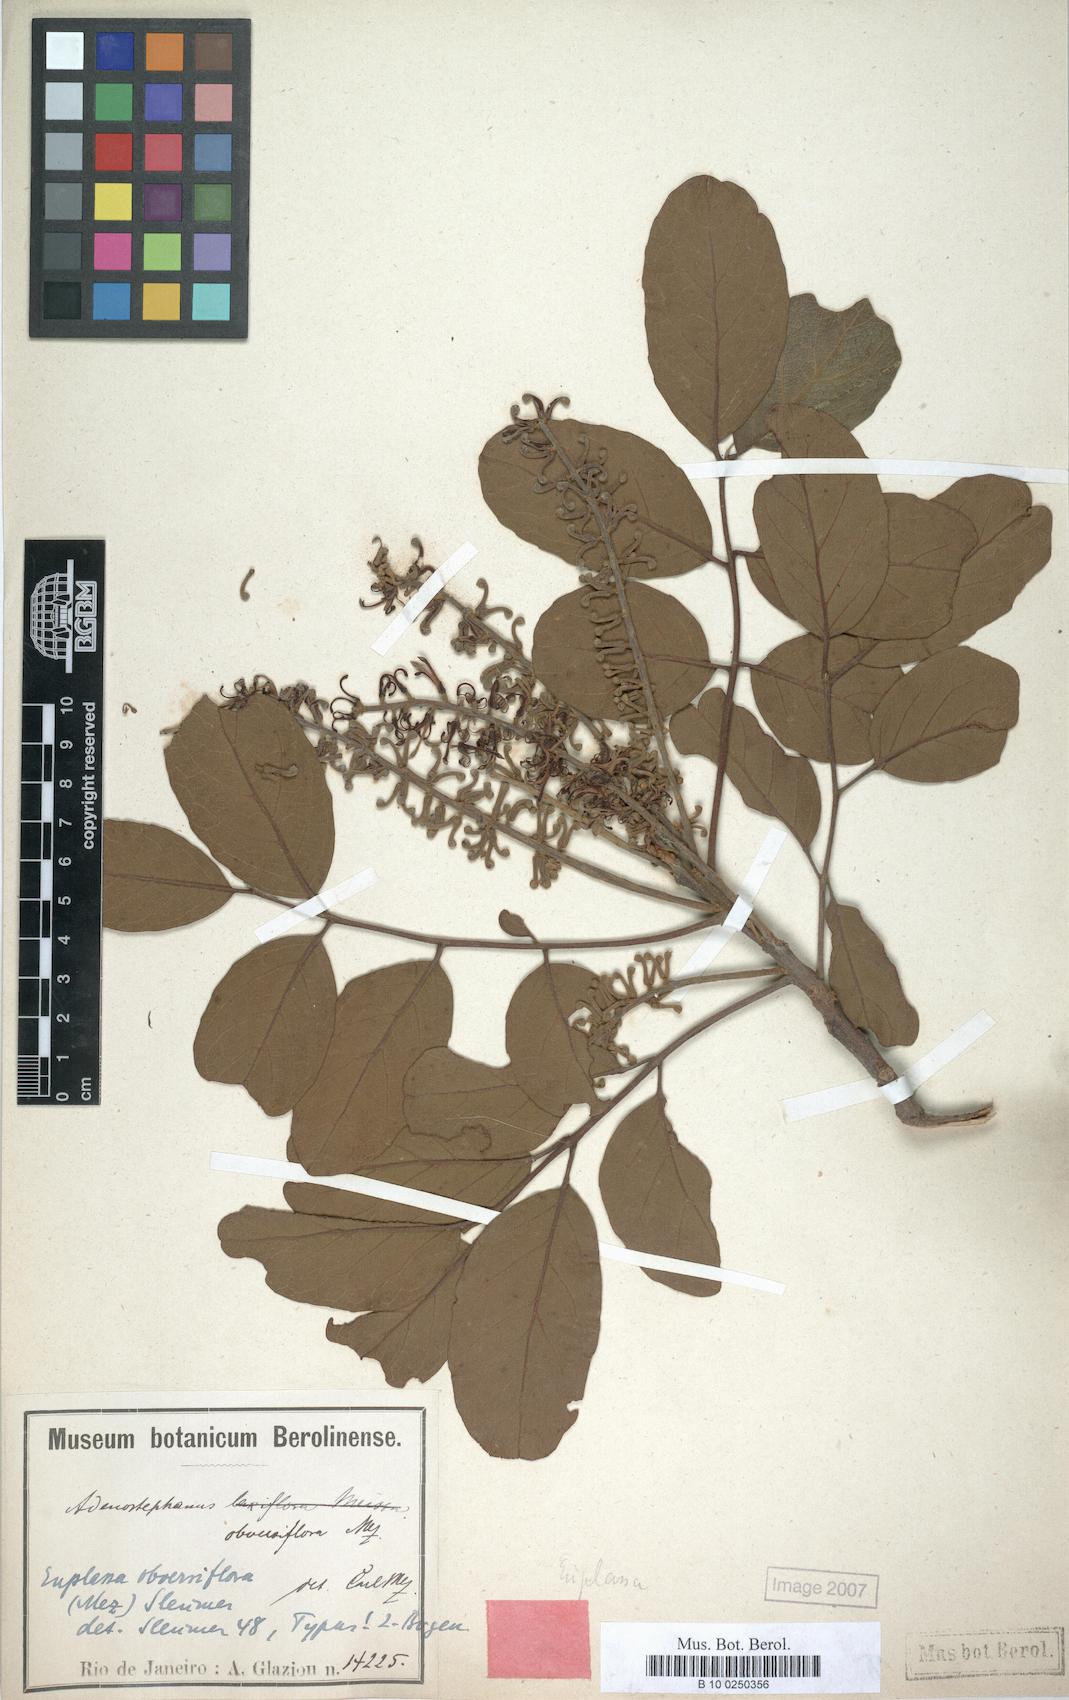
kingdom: Plantae
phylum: Tracheophyta
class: Magnoliopsida
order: Proteales
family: Proteaceae
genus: Euplassa
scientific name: Euplassa organensis
